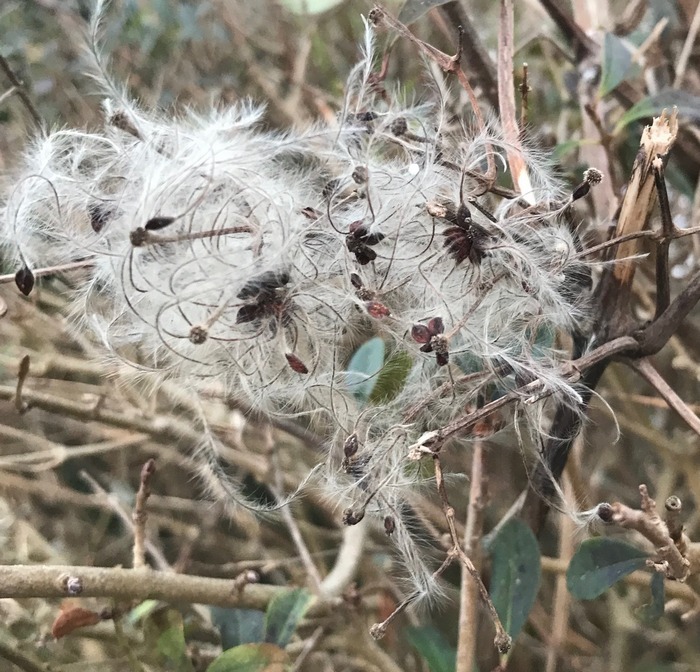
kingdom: Plantae
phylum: Tracheophyta
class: Magnoliopsida
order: Ranunculales
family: Ranunculaceae
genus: Clematis
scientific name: Clematis vitalba
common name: Skovranke
